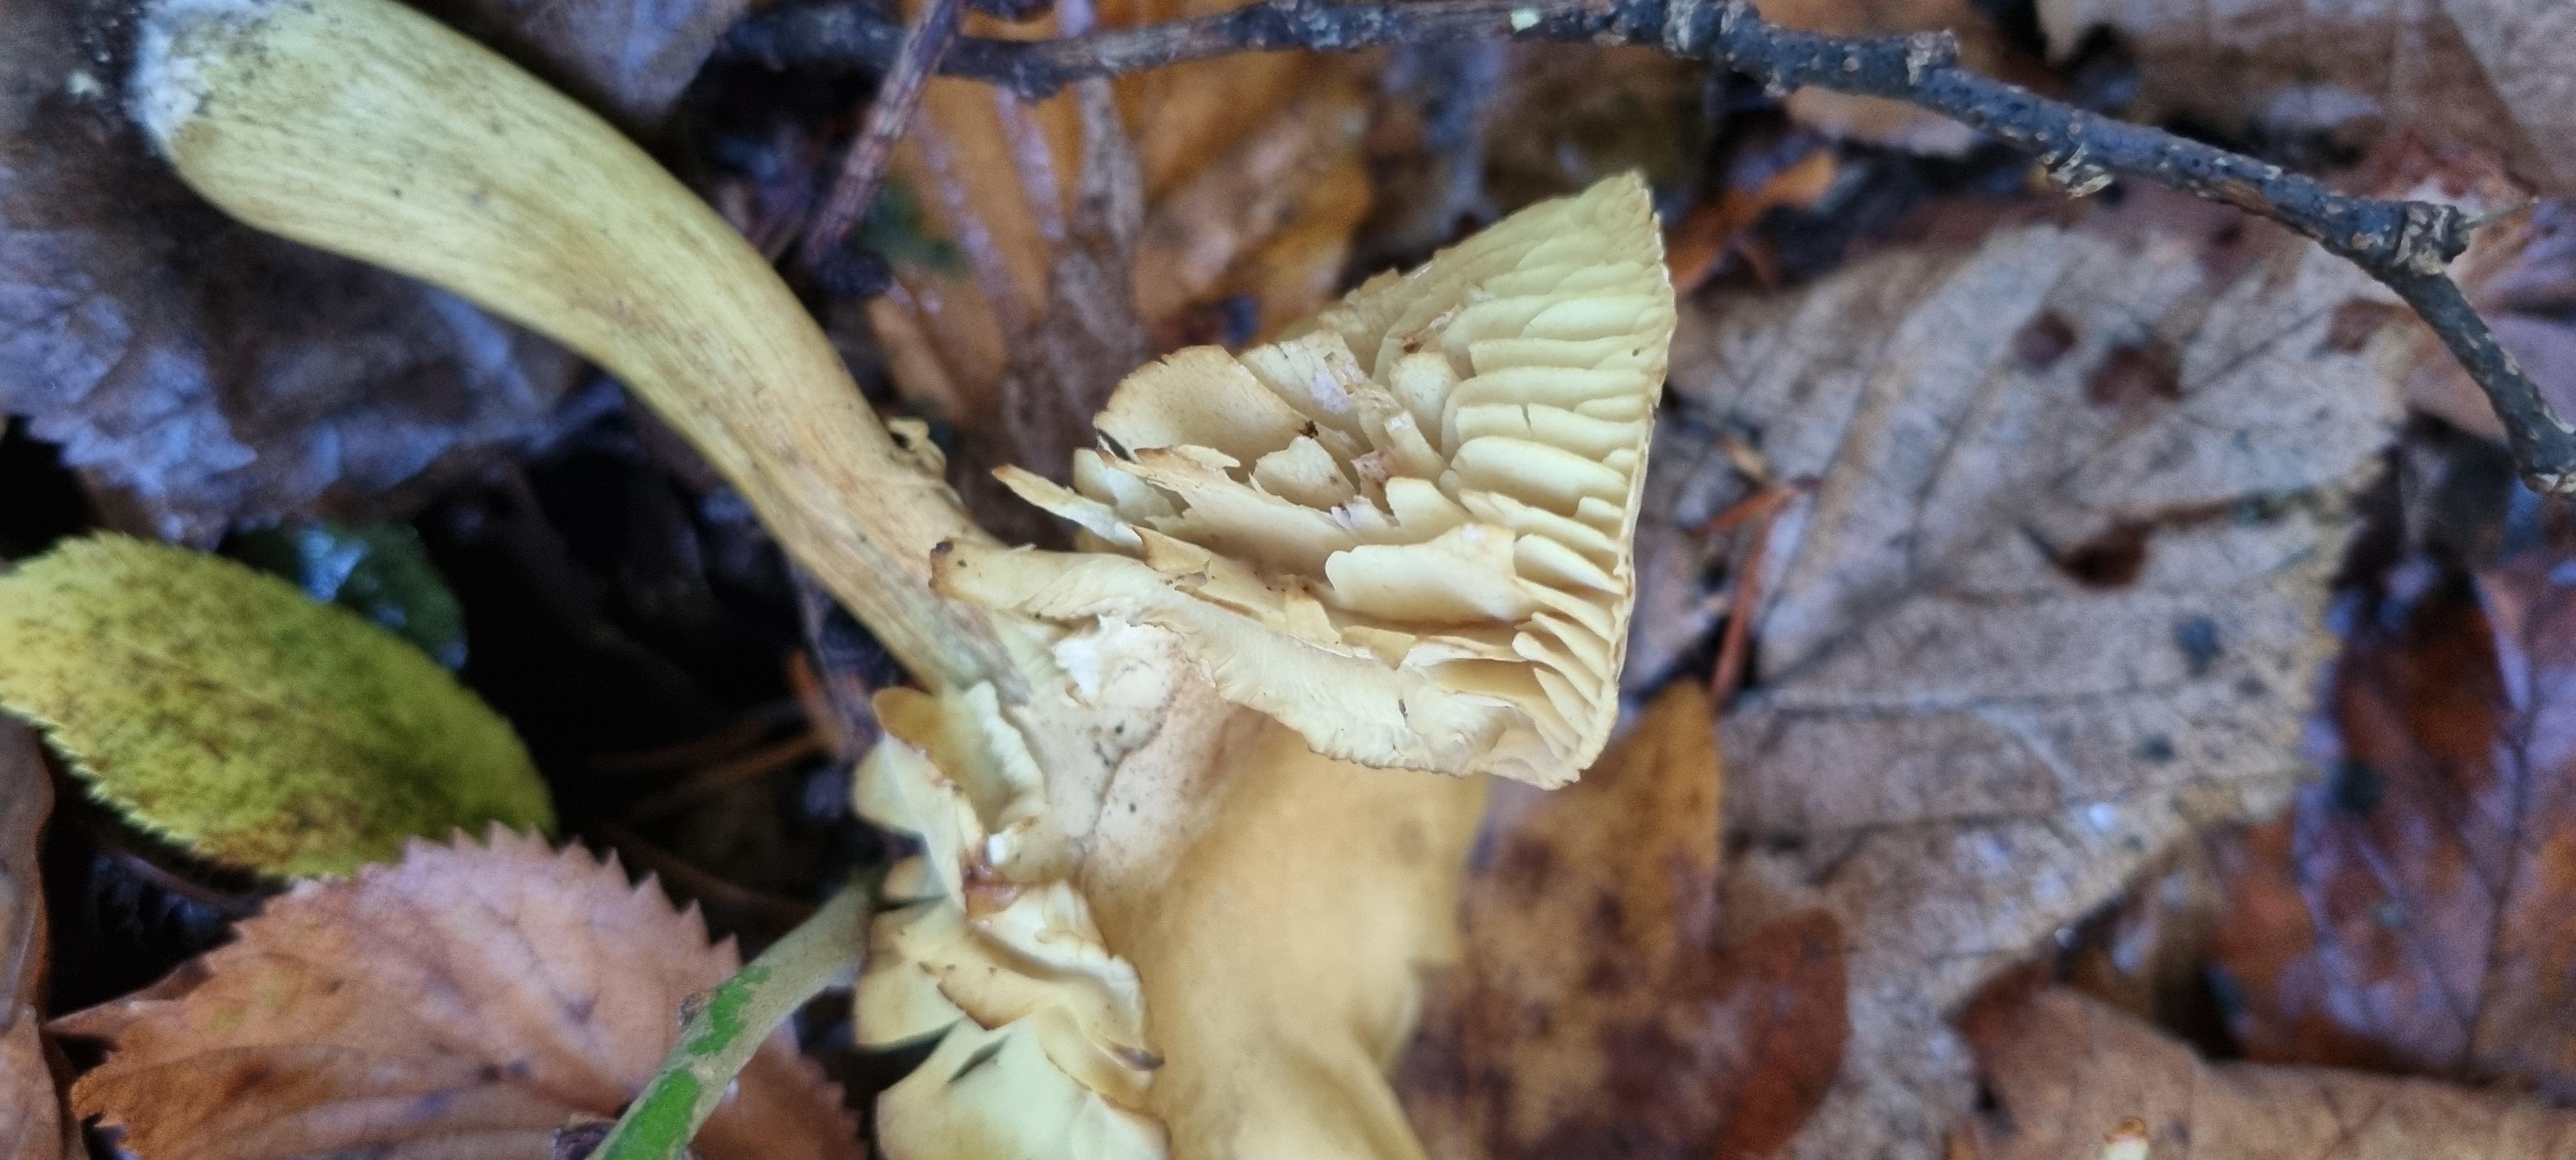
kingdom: Fungi
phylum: Basidiomycota
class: Agaricomycetes
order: Agaricales
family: Tricholomataceae
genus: Tricholoma
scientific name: Tricholoma sulphureum
